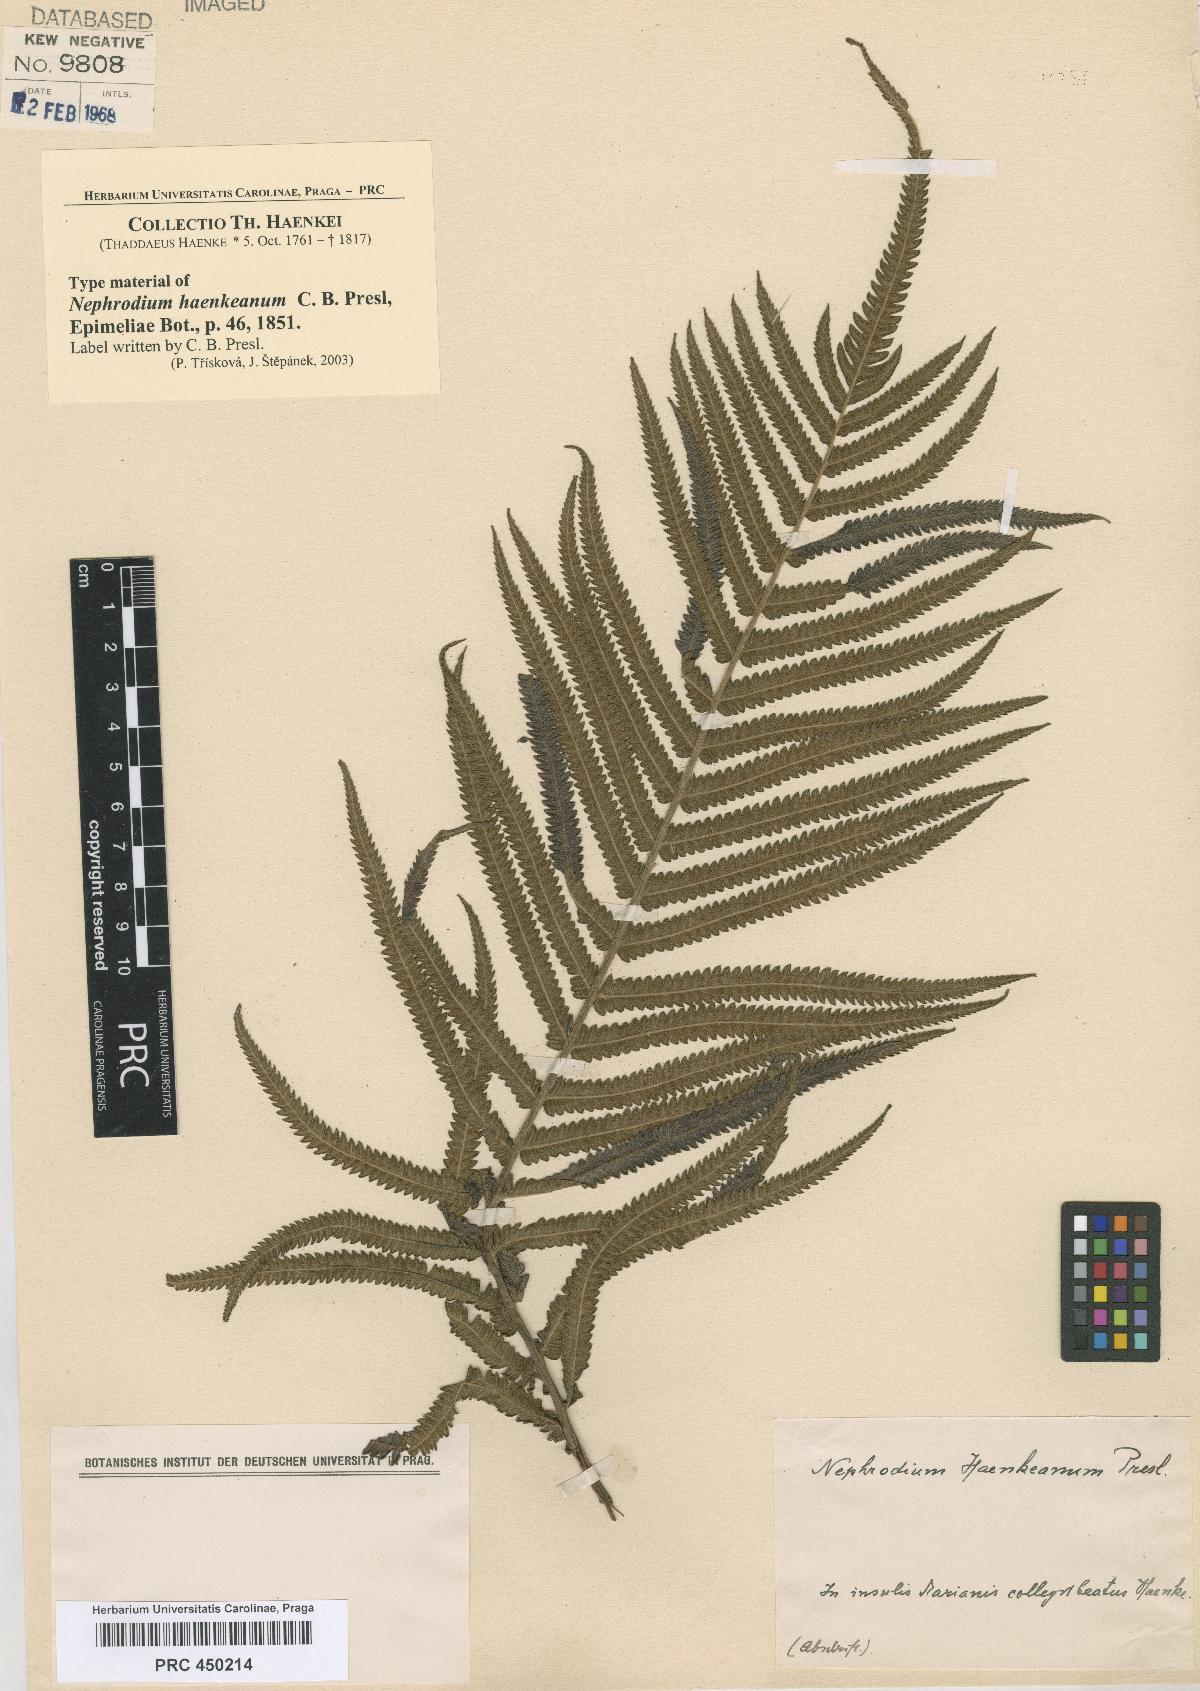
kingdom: Plantae
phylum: Tracheophyta
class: Polypodiopsida
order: Polypodiales
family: Thelypteridaceae
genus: Strophocaulon
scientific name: Strophocaulon unitum
